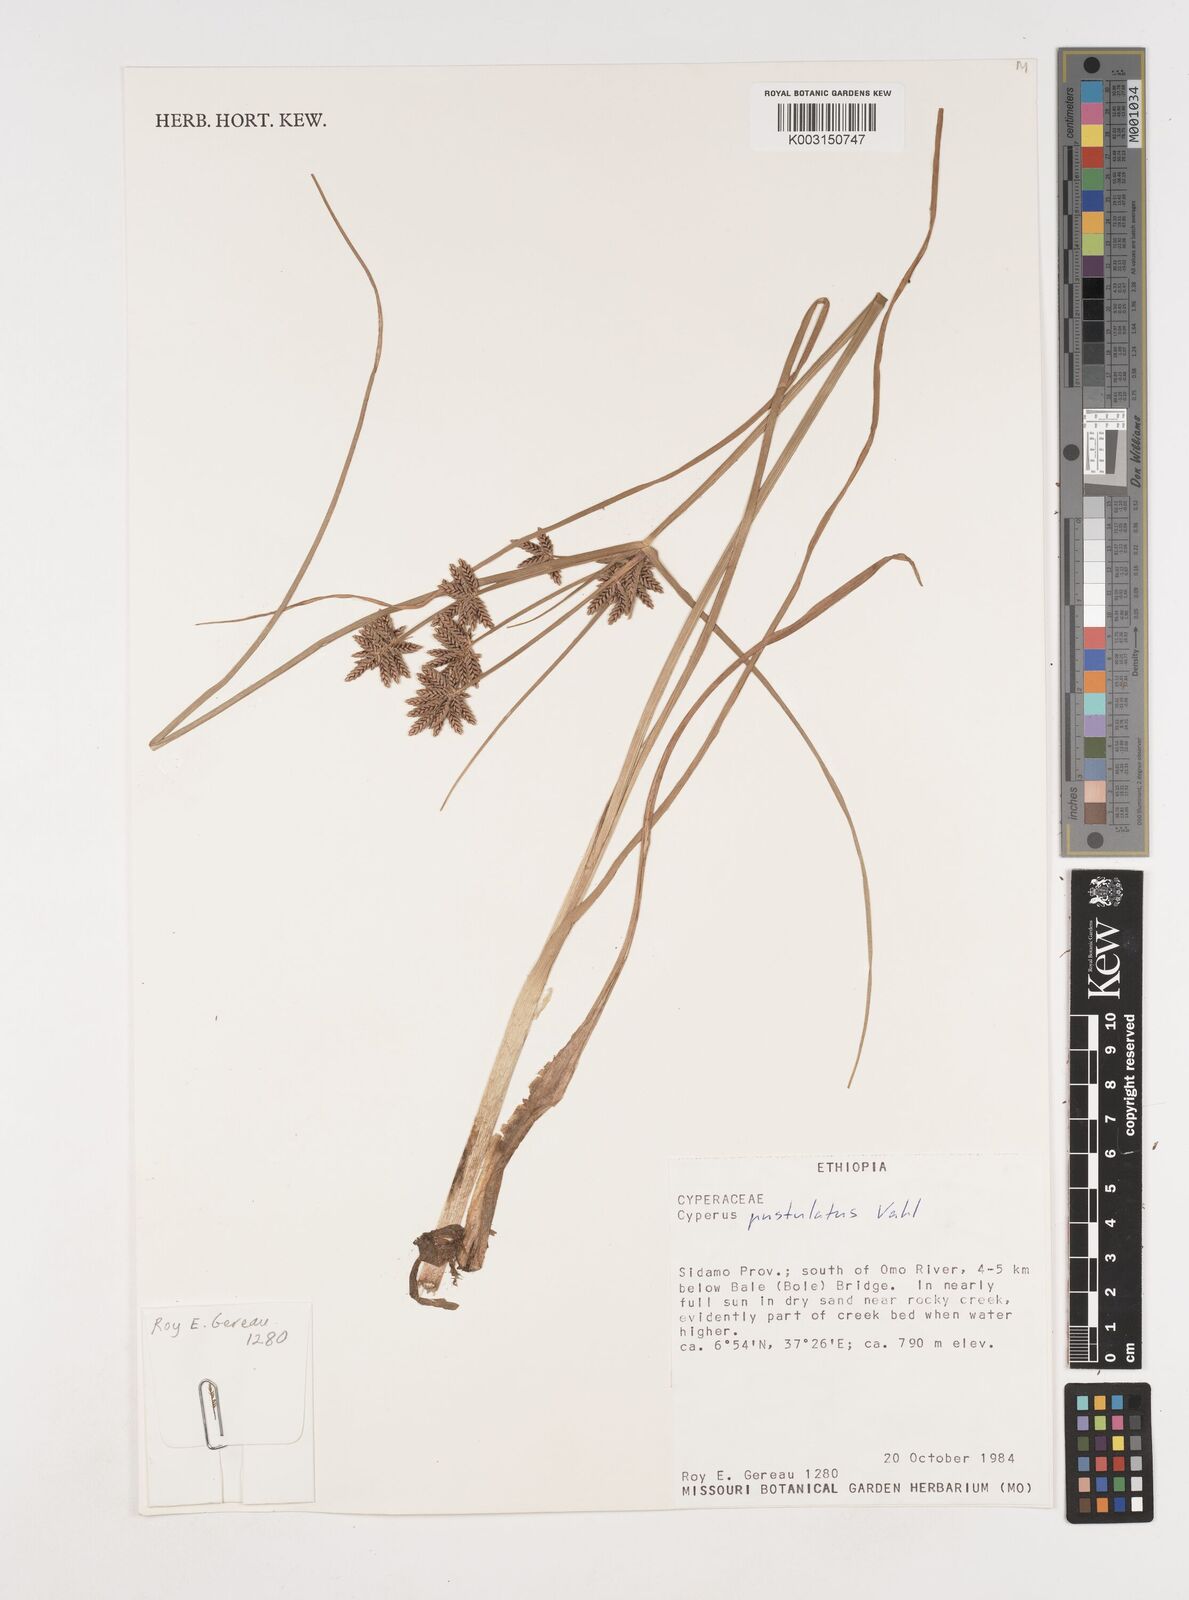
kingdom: Plantae
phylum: Tracheophyta
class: Liliopsida
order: Poales
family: Cyperaceae
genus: Cyperus
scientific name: Cyperus pustulatus
